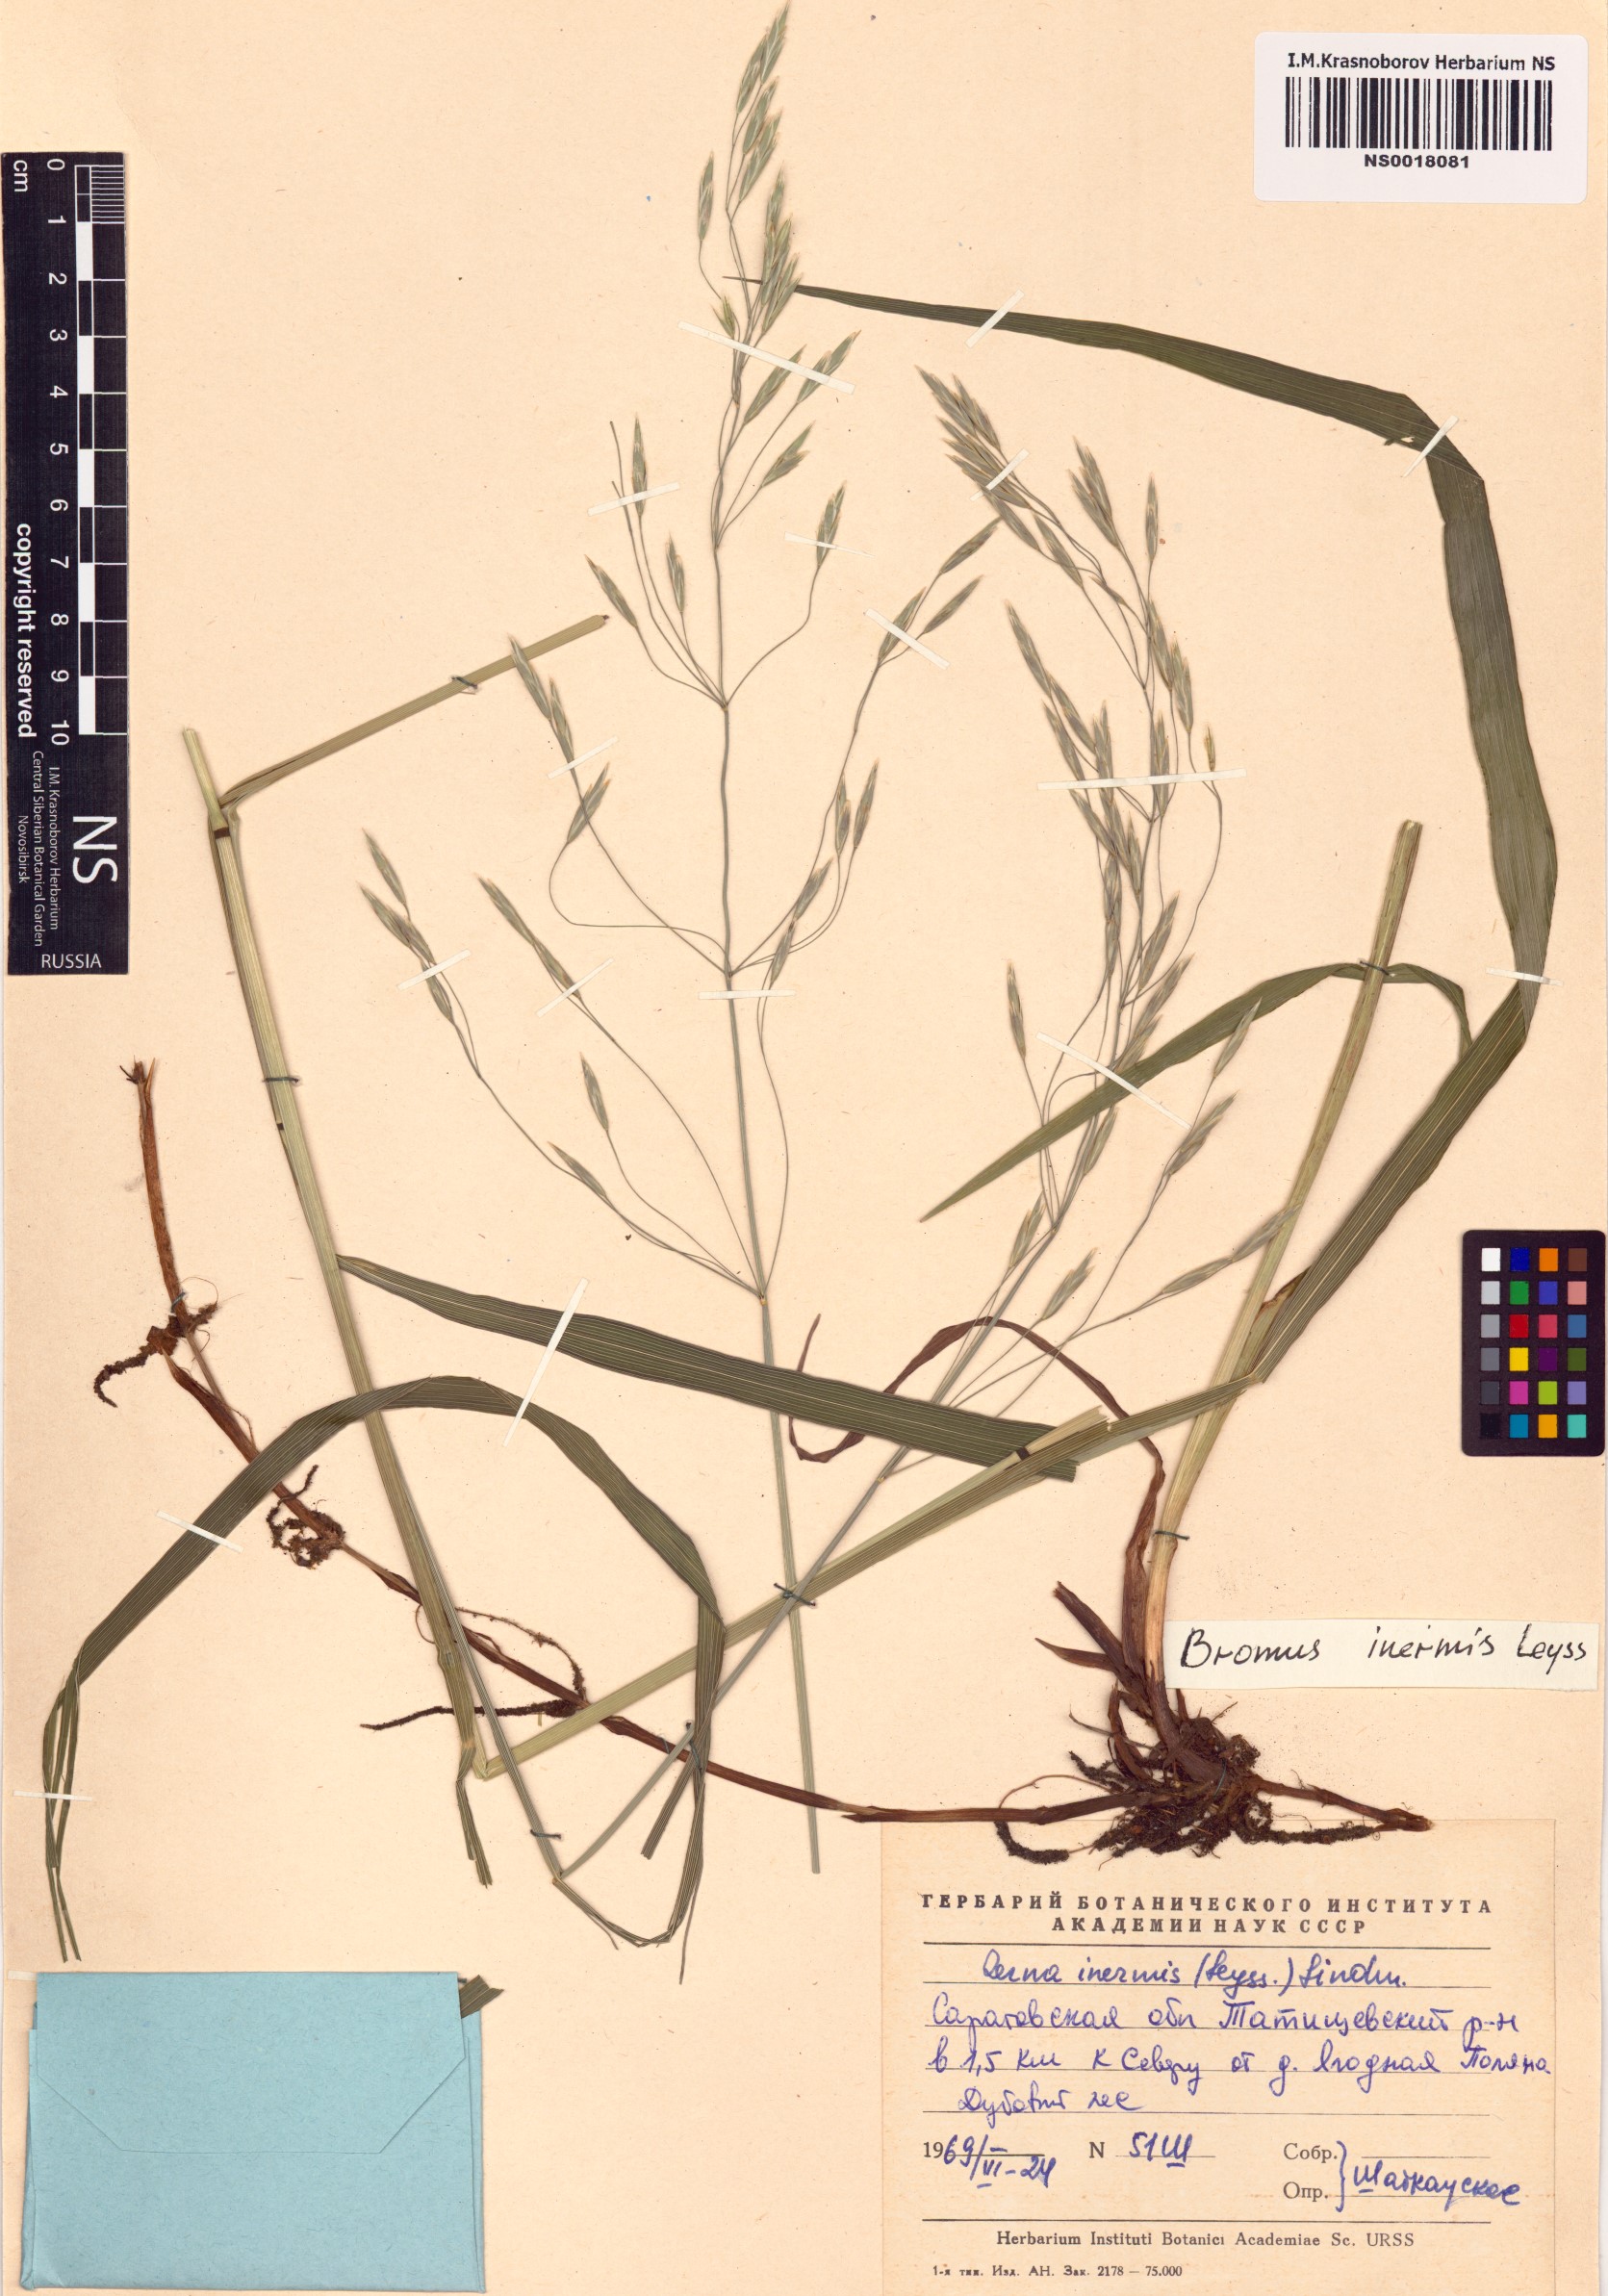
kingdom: Plantae
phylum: Tracheophyta
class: Liliopsida
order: Poales
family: Poaceae
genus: Bromus
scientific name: Bromus inermis
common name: Smooth brome
